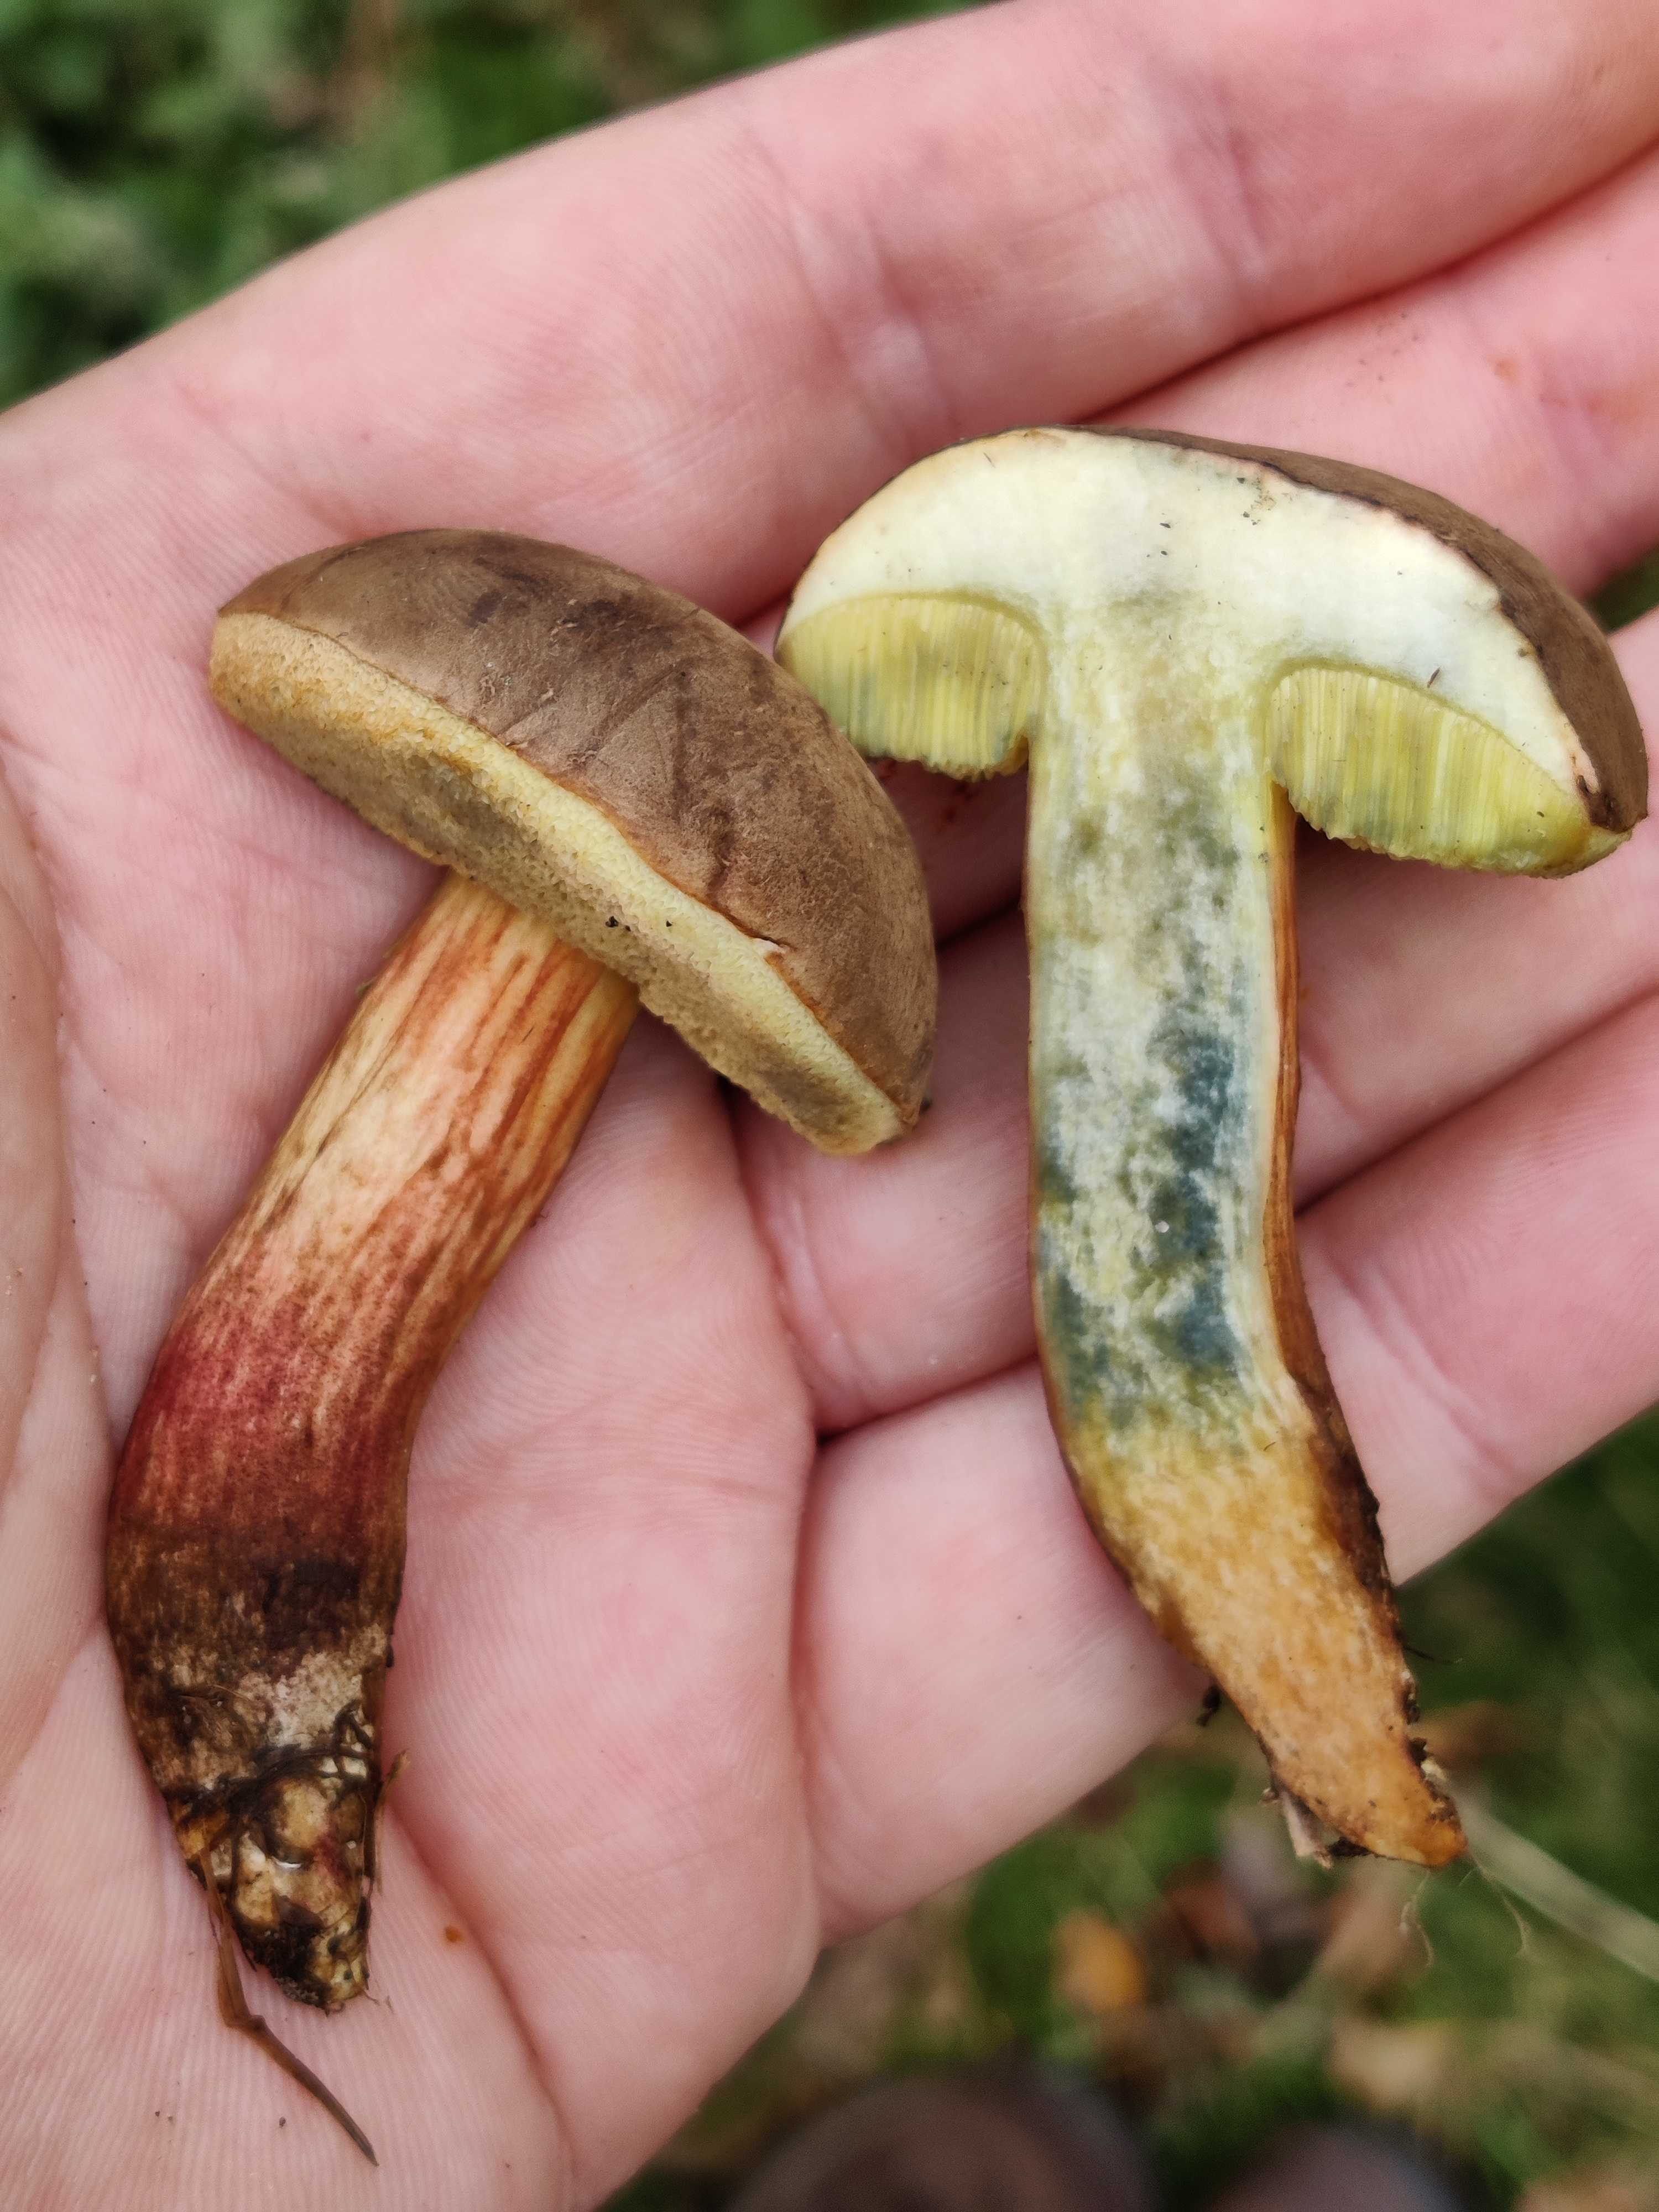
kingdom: Fungi
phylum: Basidiomycota
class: Agaricomycetes
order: Boletales
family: Boletaceae
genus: Xerocomellus
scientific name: Xerocomellus cisalpinus
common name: finsprukken rørhat
